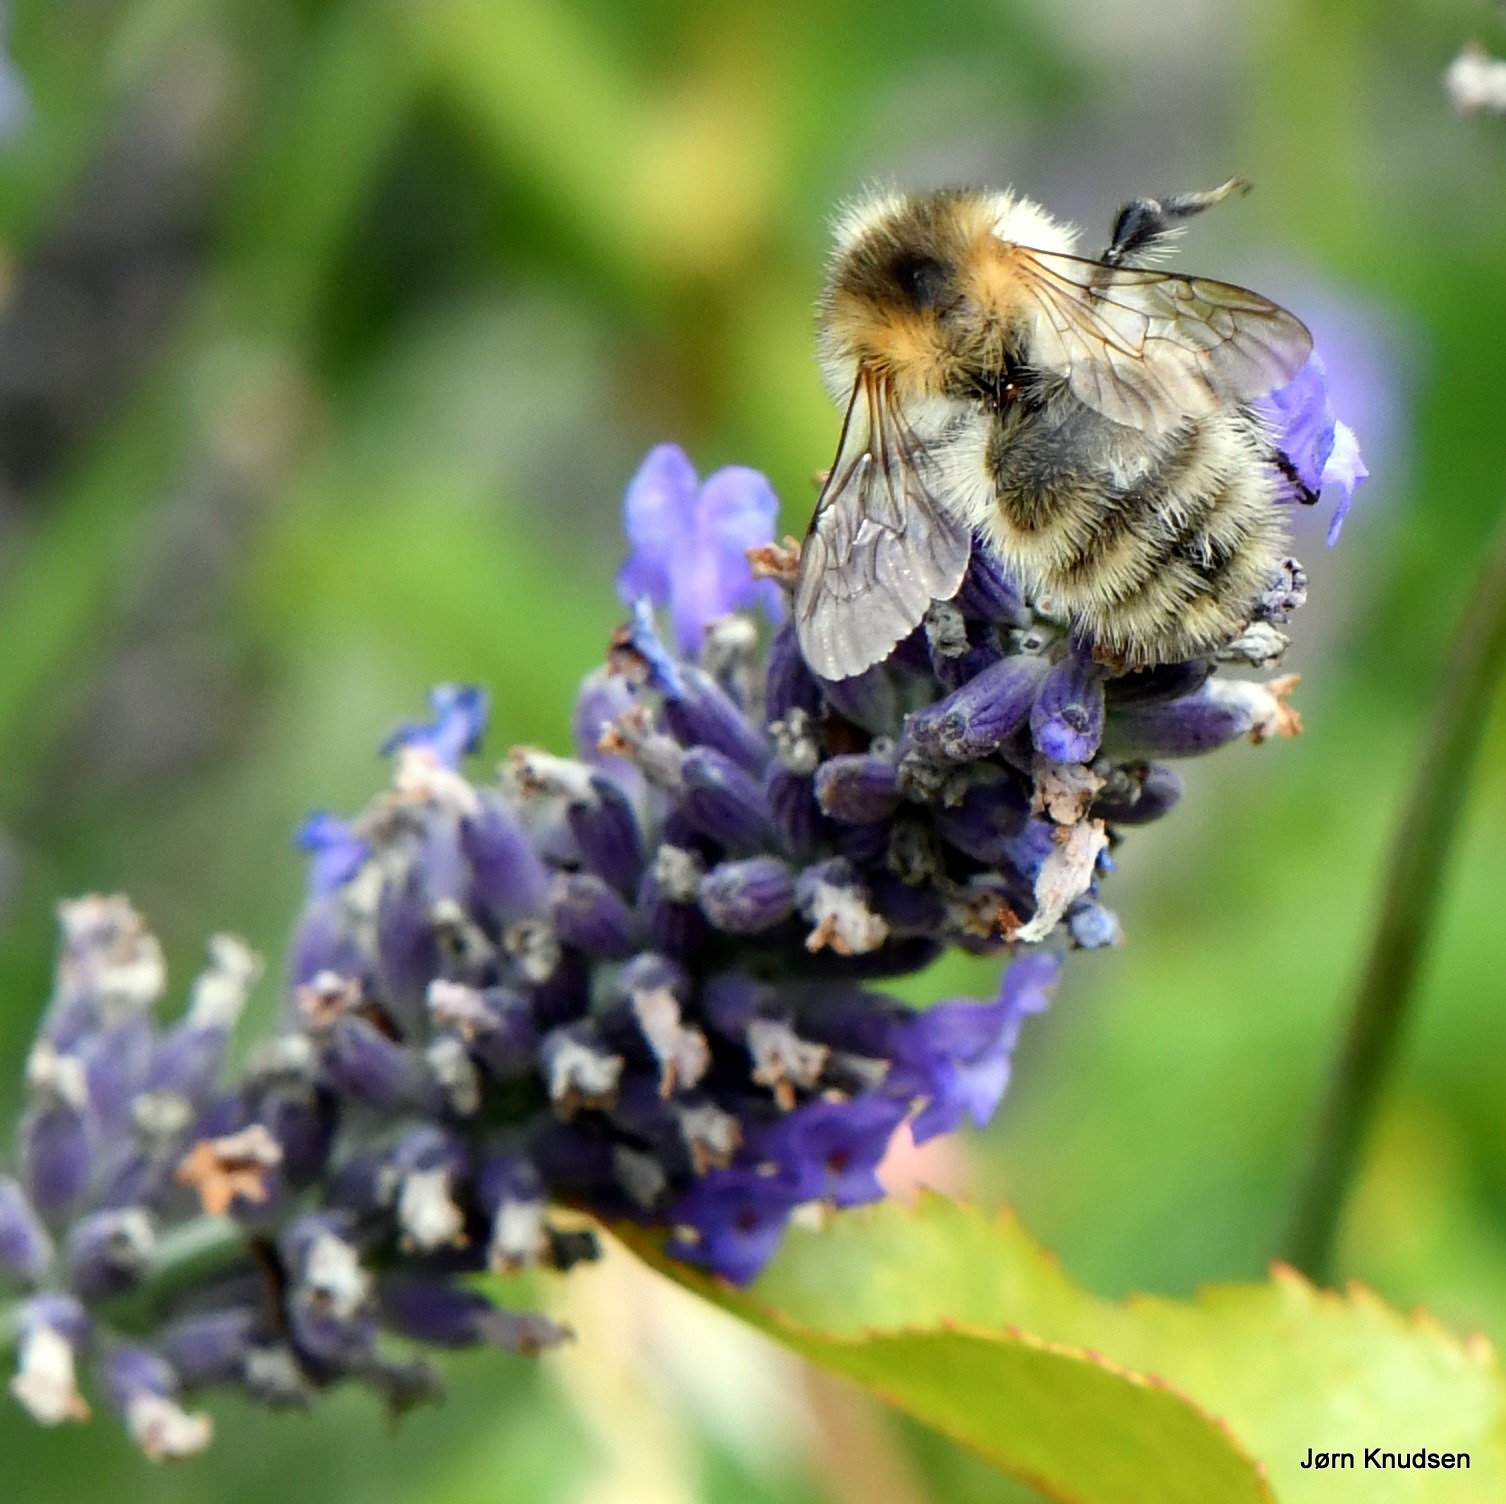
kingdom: Animalia
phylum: Arthropoda
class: Insecta
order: Hymenoptera
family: Apidae
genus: Bombus
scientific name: Bombus pascuorum
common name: Agerhumle
